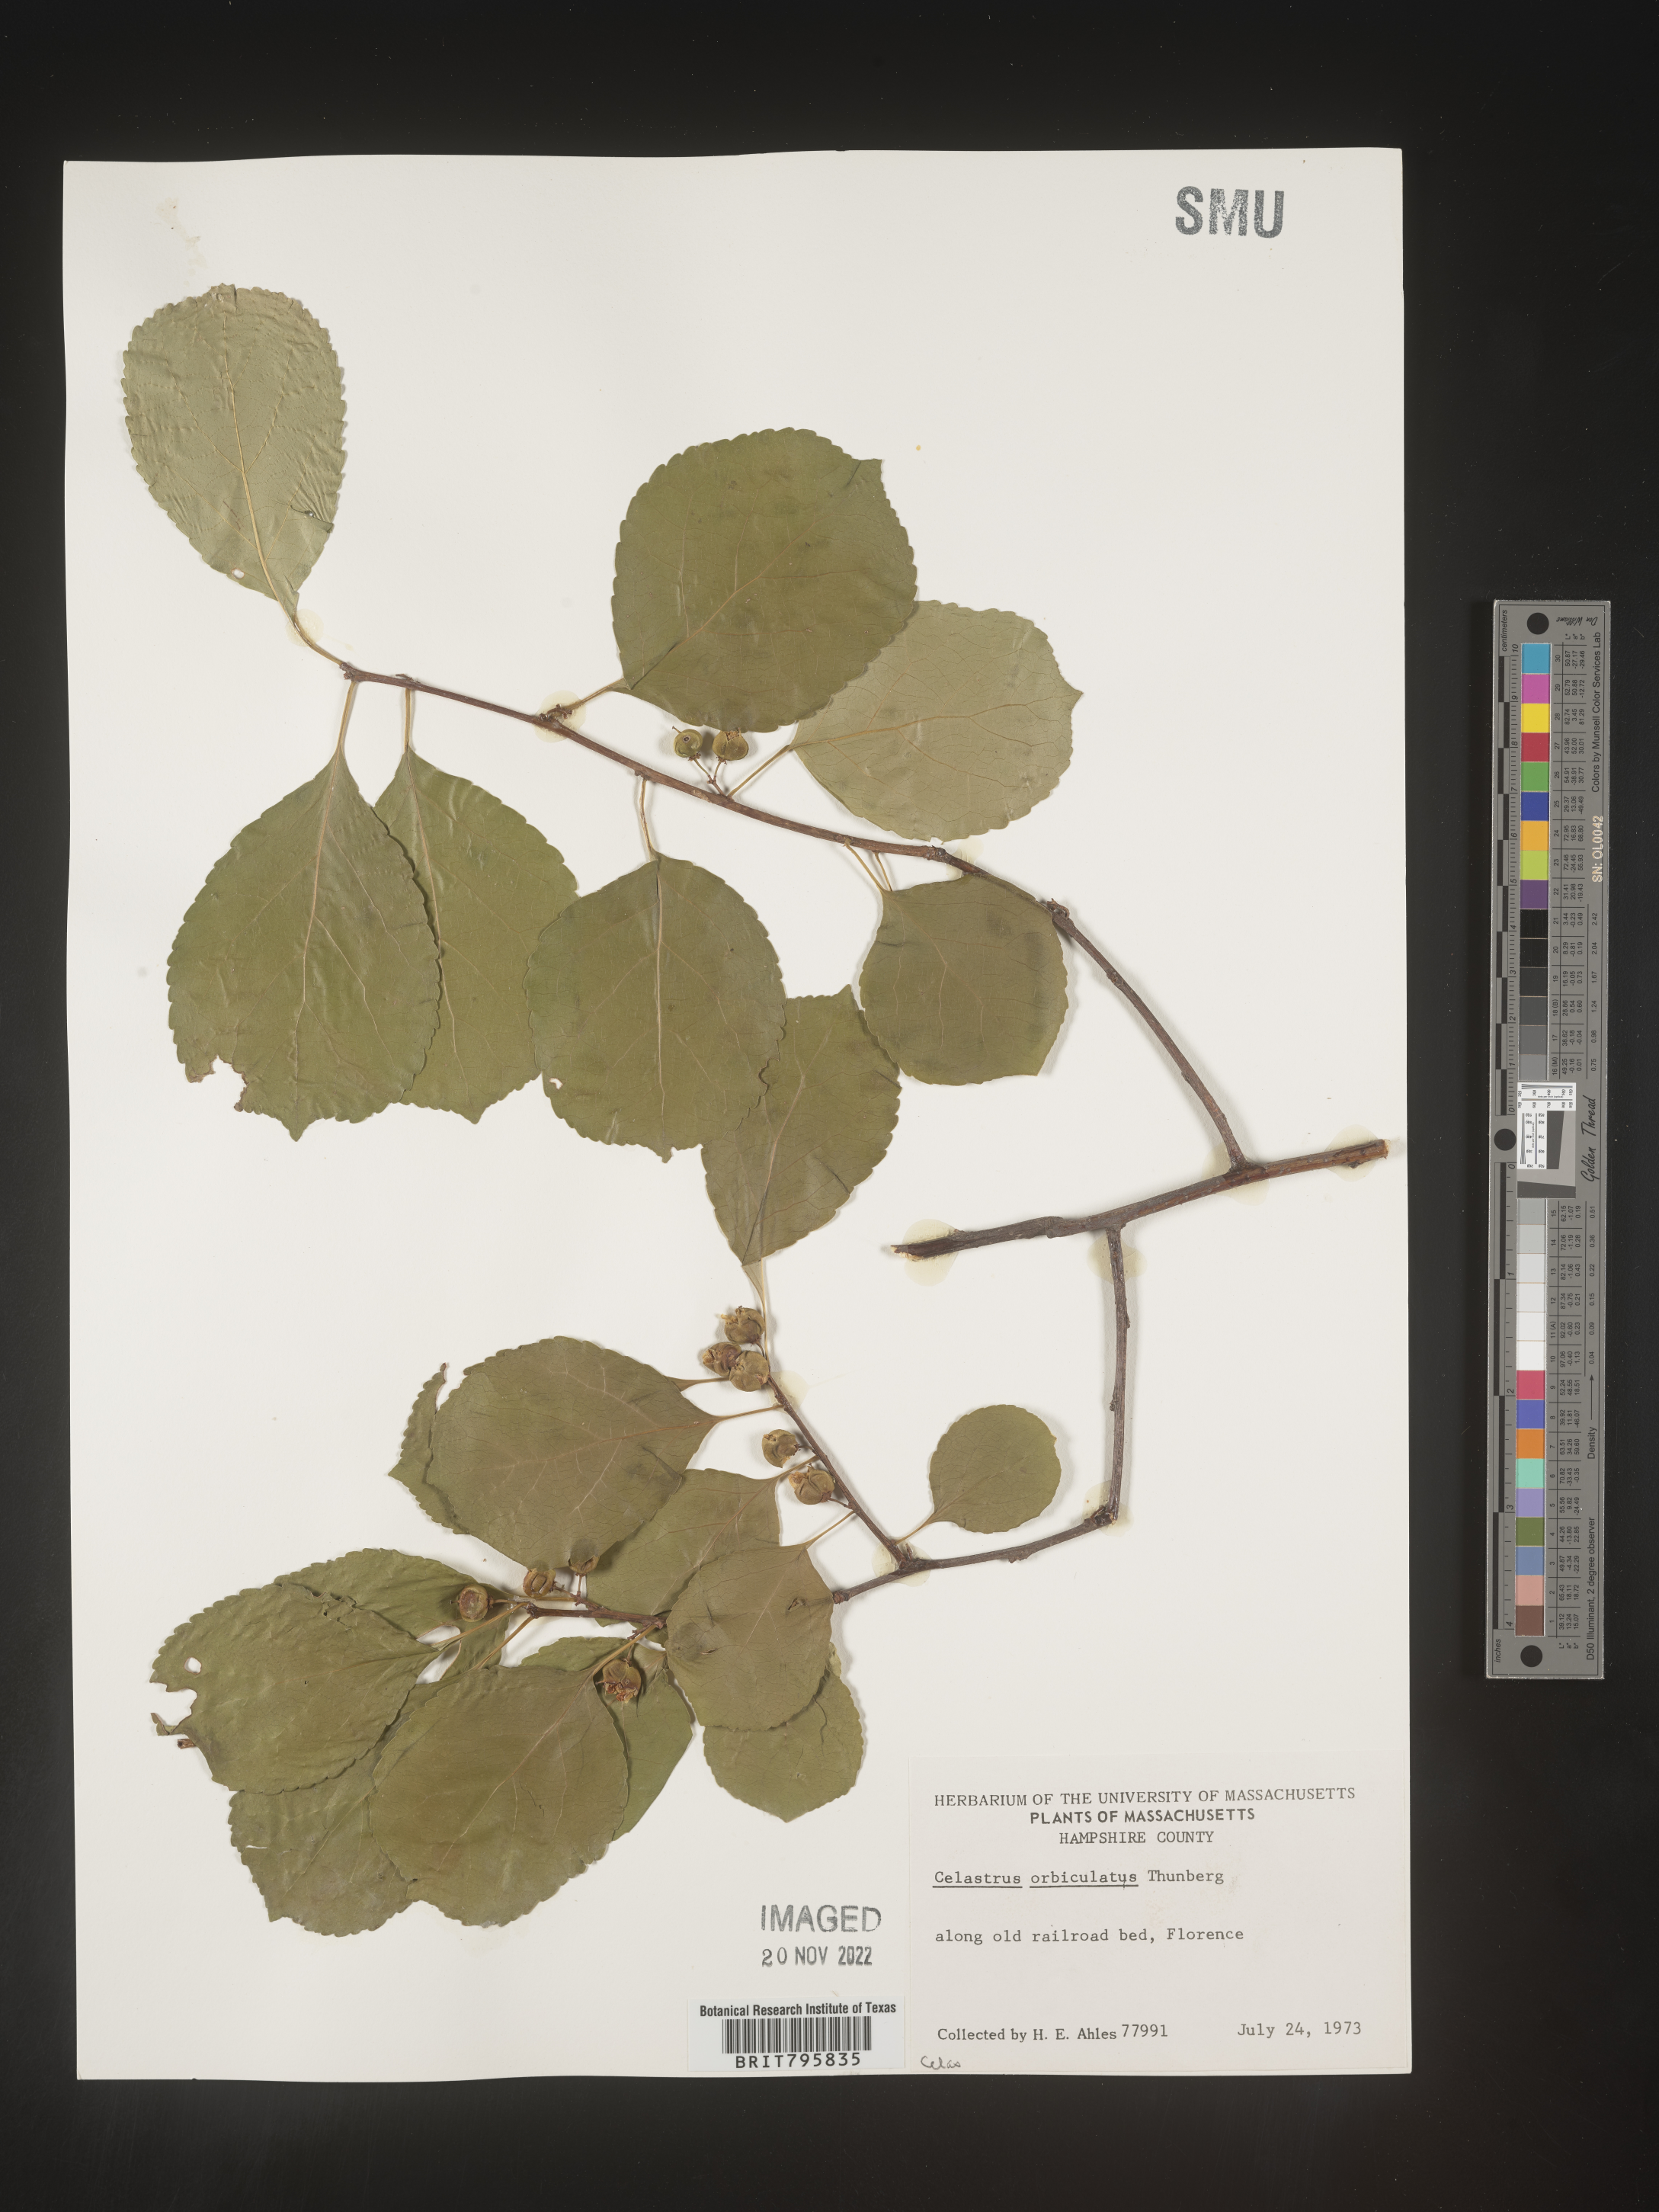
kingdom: Plantae
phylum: Tracheophyta
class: Magnoliopsida
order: Celastrales
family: Celastraceae
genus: Celastrus
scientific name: Celastrus
